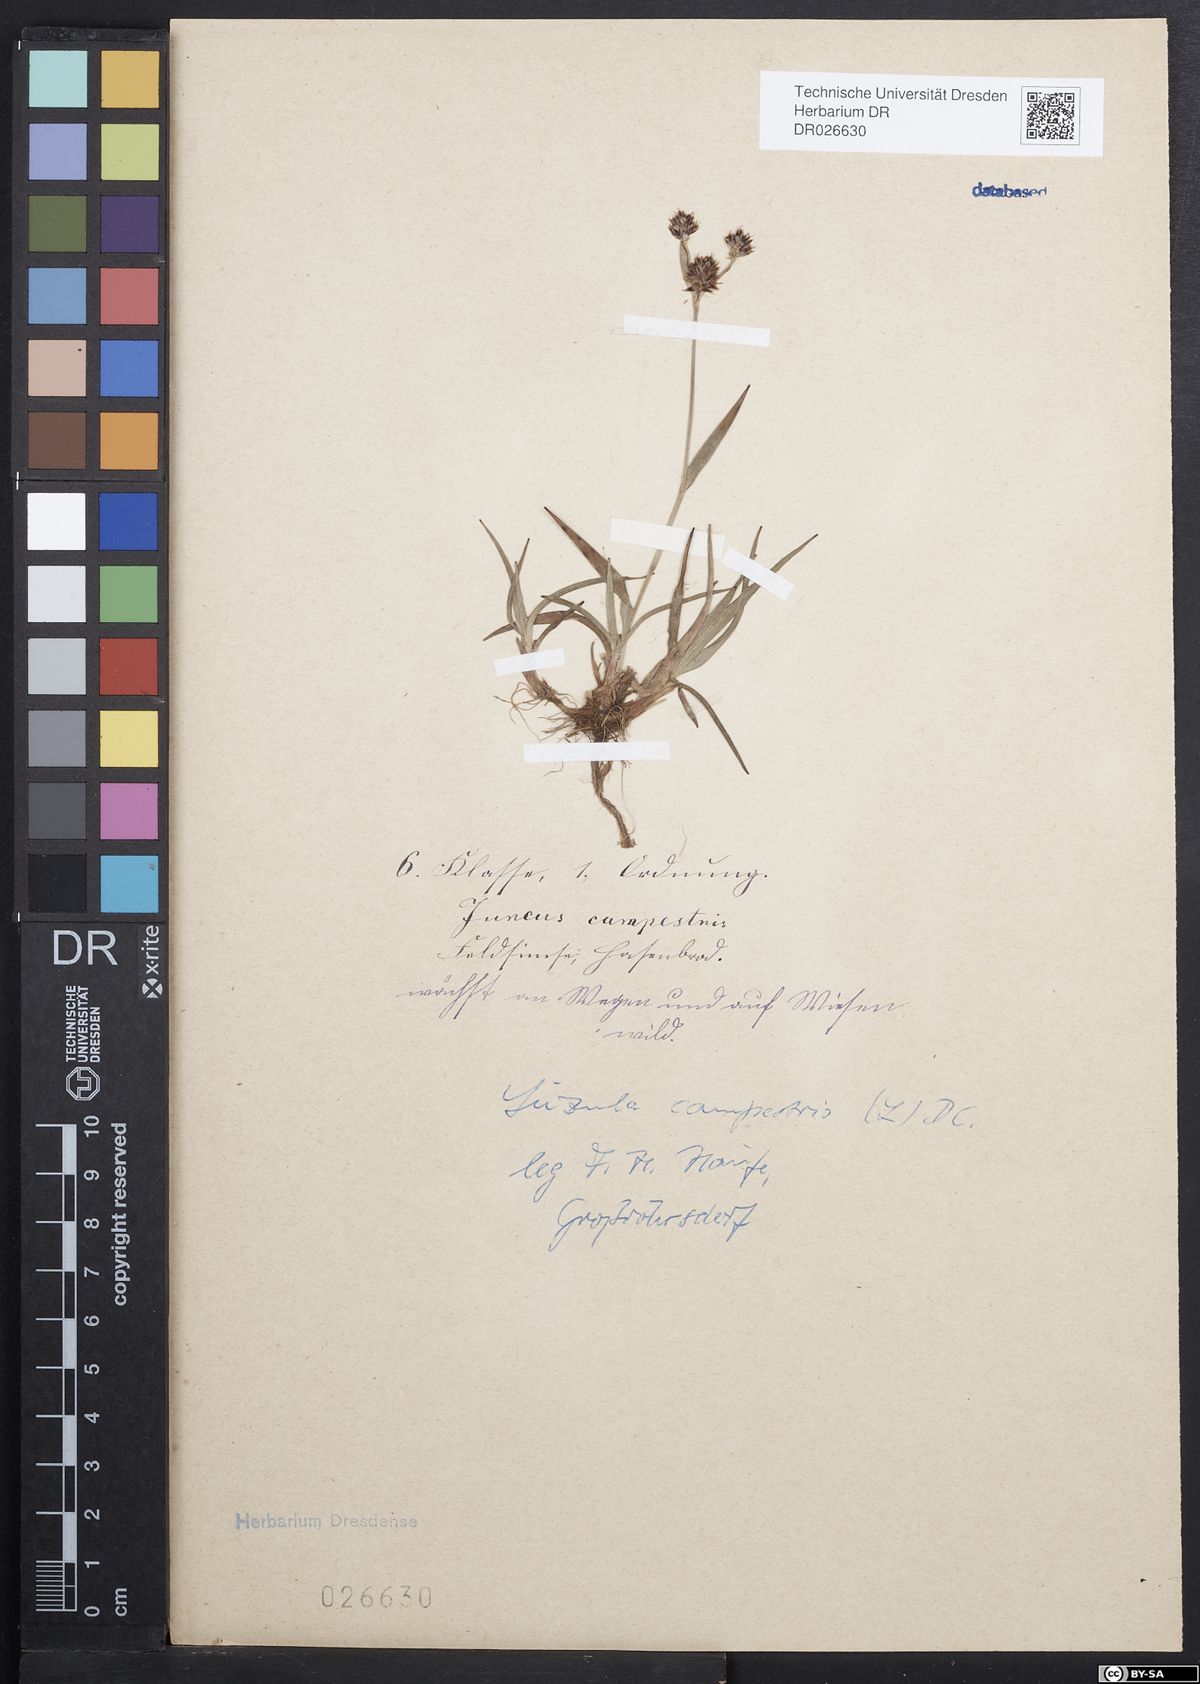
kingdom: Plantae
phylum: Tracheophyta
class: Liliopsida
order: Poales
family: Juncaceae
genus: Luzula
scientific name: Luzula campestris
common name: Field wood-rush
